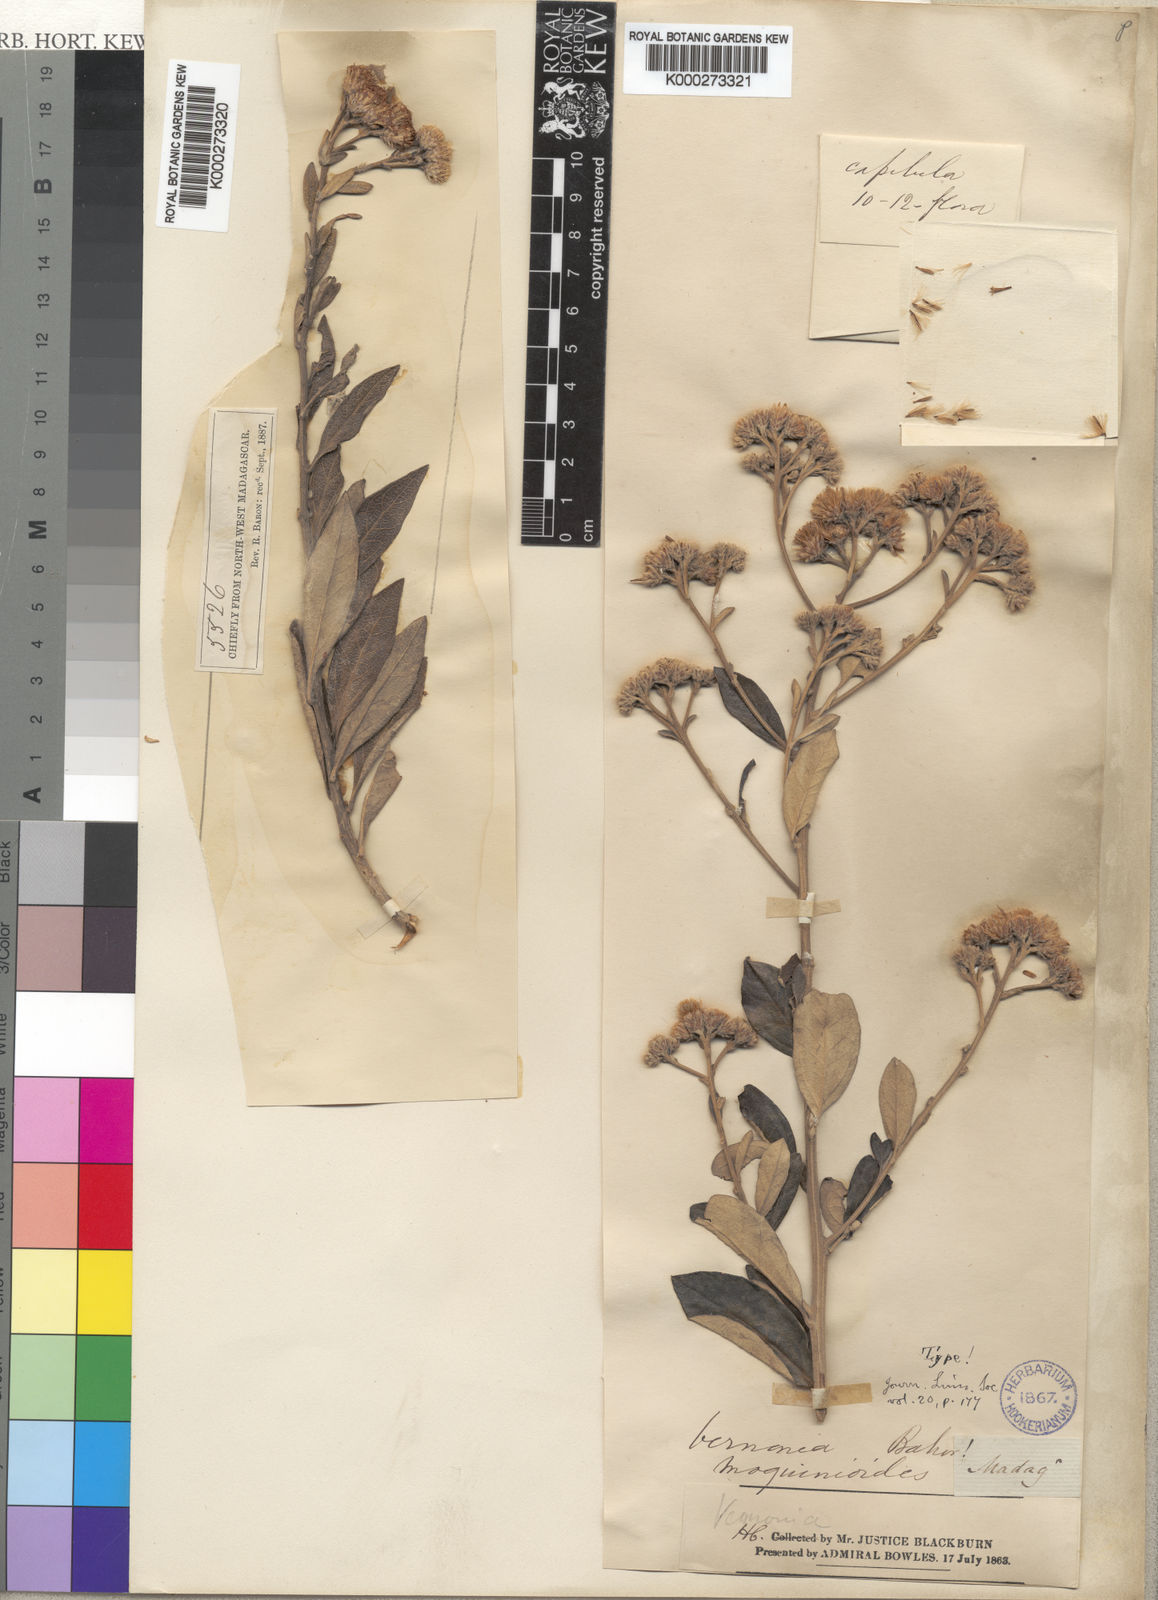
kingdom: Plantae
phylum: Tracheophyta
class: Magnoliopsida
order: Asterales
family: Asteraceae
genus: Distephanus
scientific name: Distephanus garnierianus
